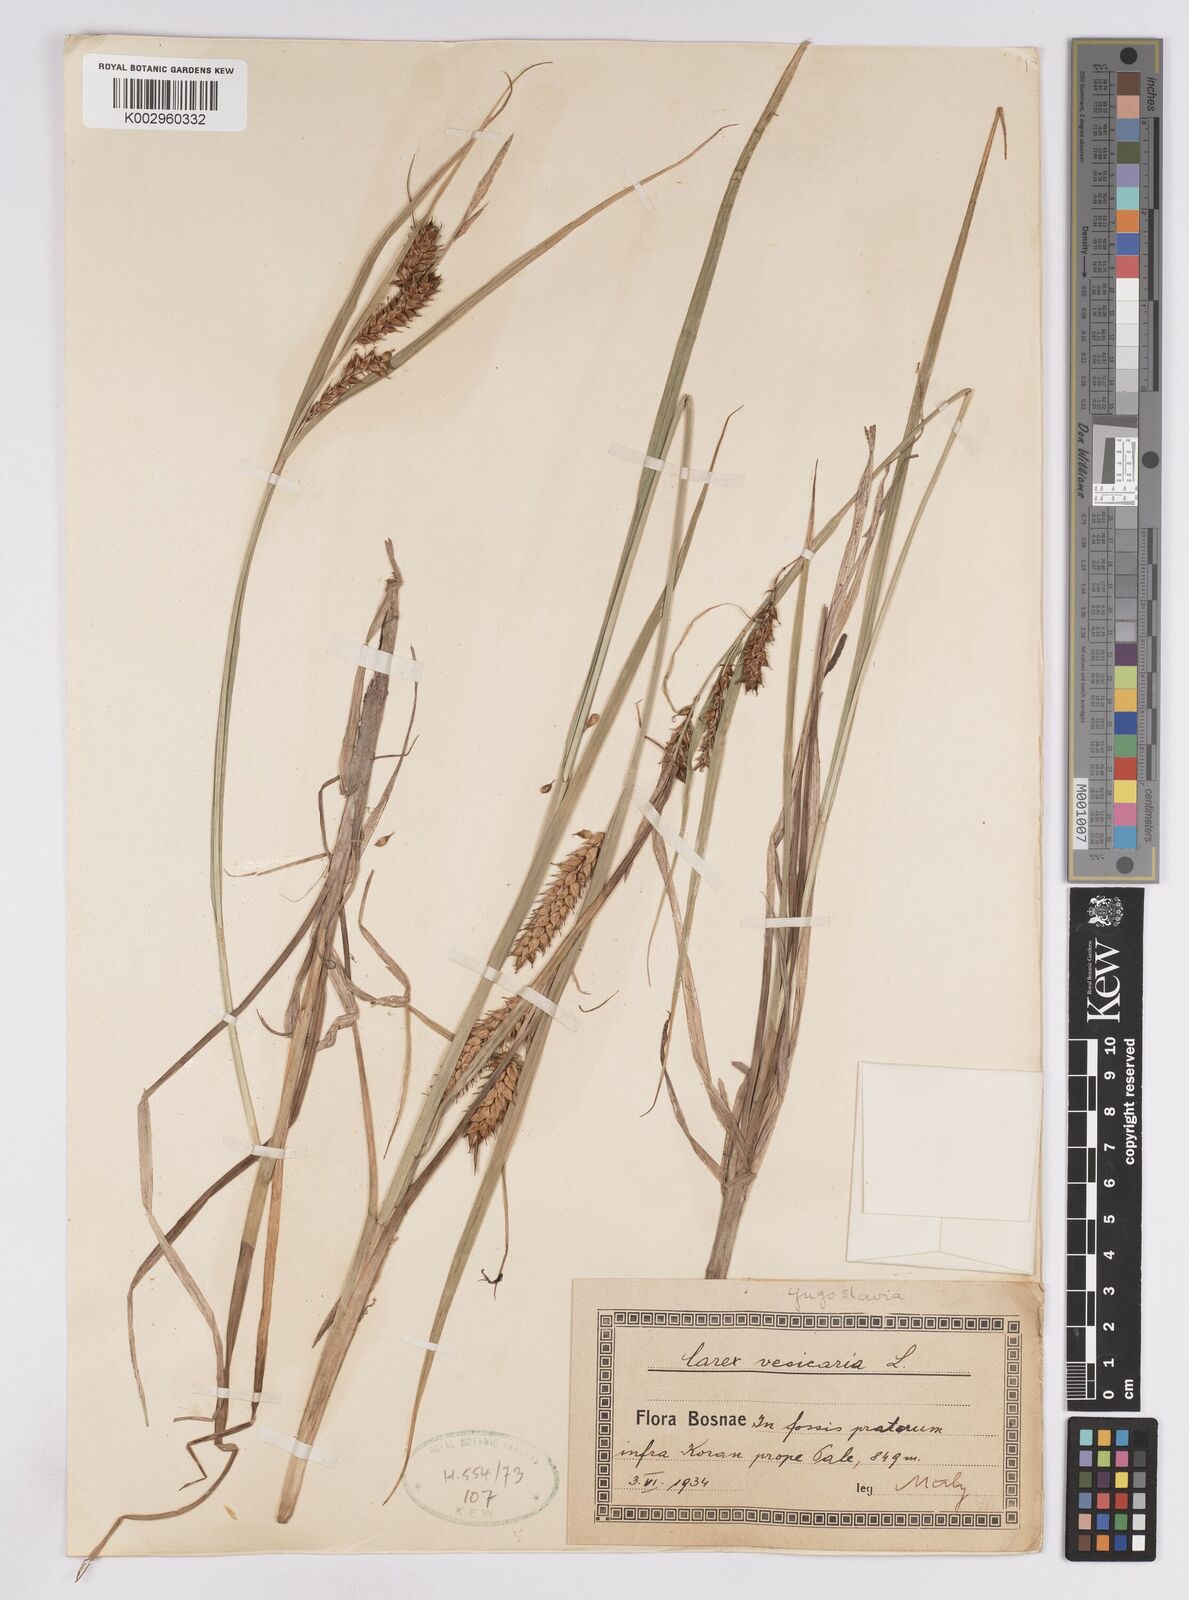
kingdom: Plantae
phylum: Tracheophyta
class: Liliopsida
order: Poales
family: Cyperaceae
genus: Carex
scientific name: Carex vesicaria
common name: Bladder-sedge
